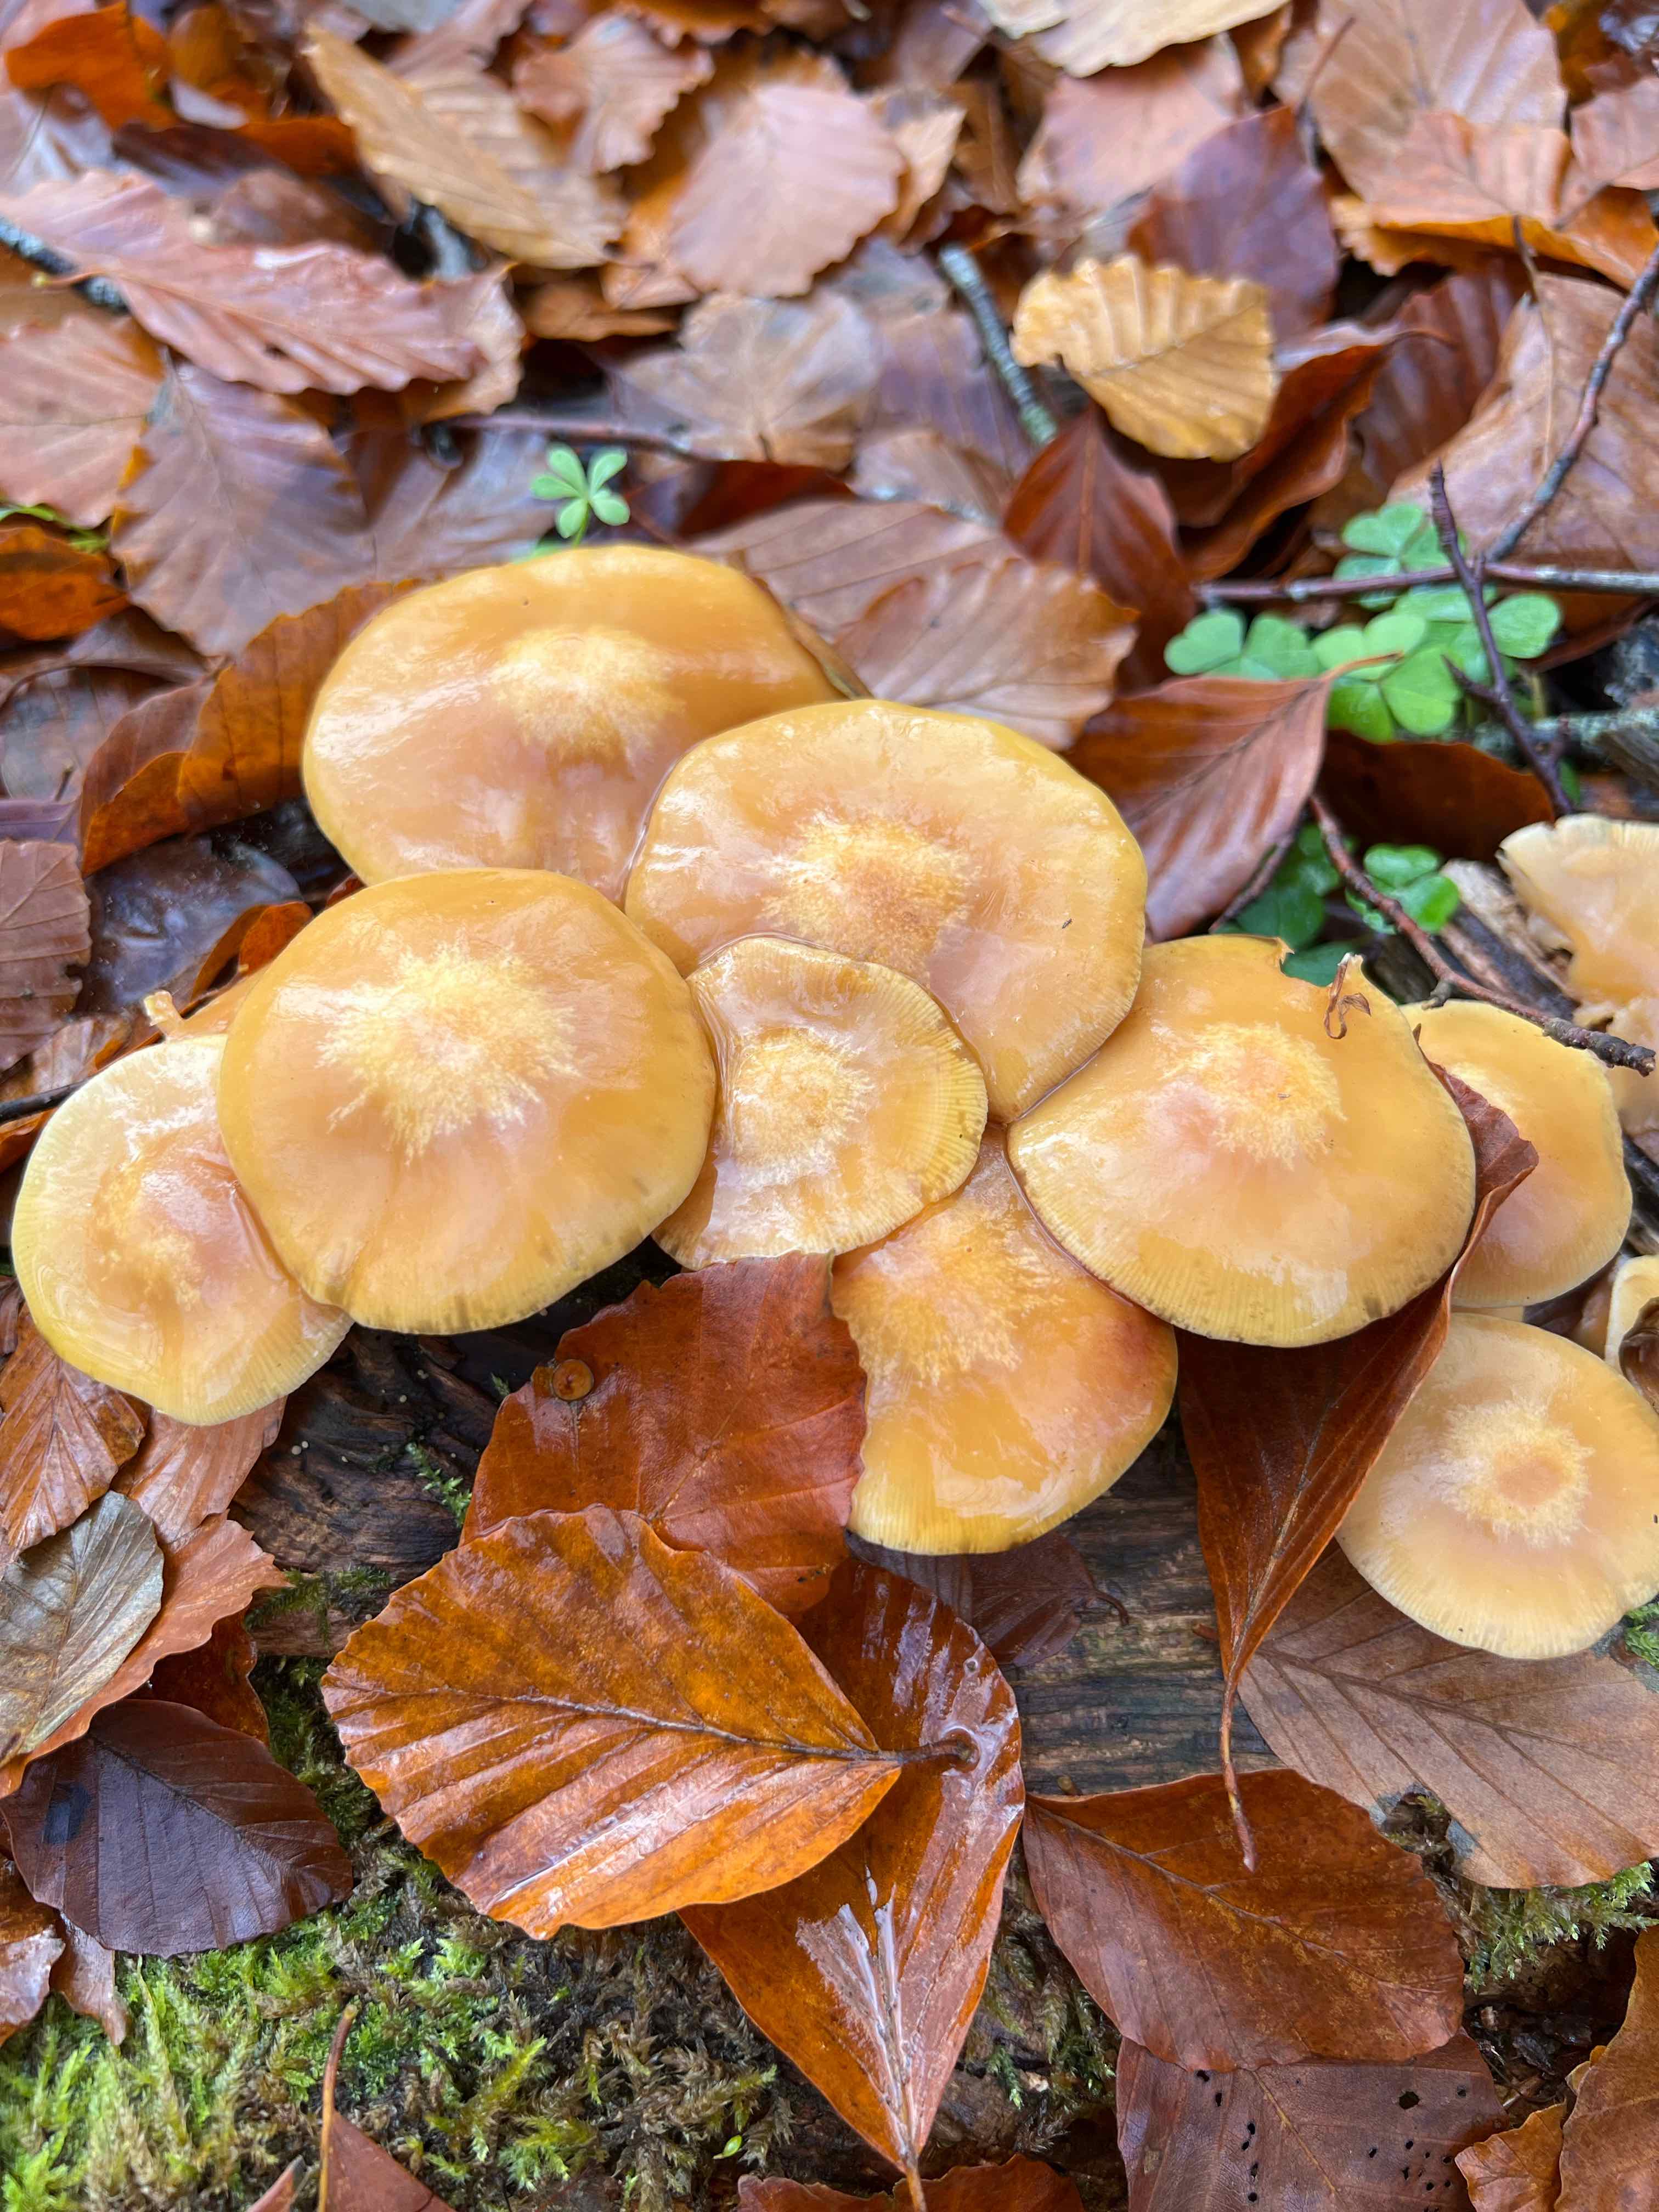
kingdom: Fungi
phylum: Basidiomycota
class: Agaricomycetes
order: Agaricales
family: Strophariaceae
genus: Kuehneromyces
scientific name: Kuehneromyces mutabilis
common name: foranderlig skælhat
